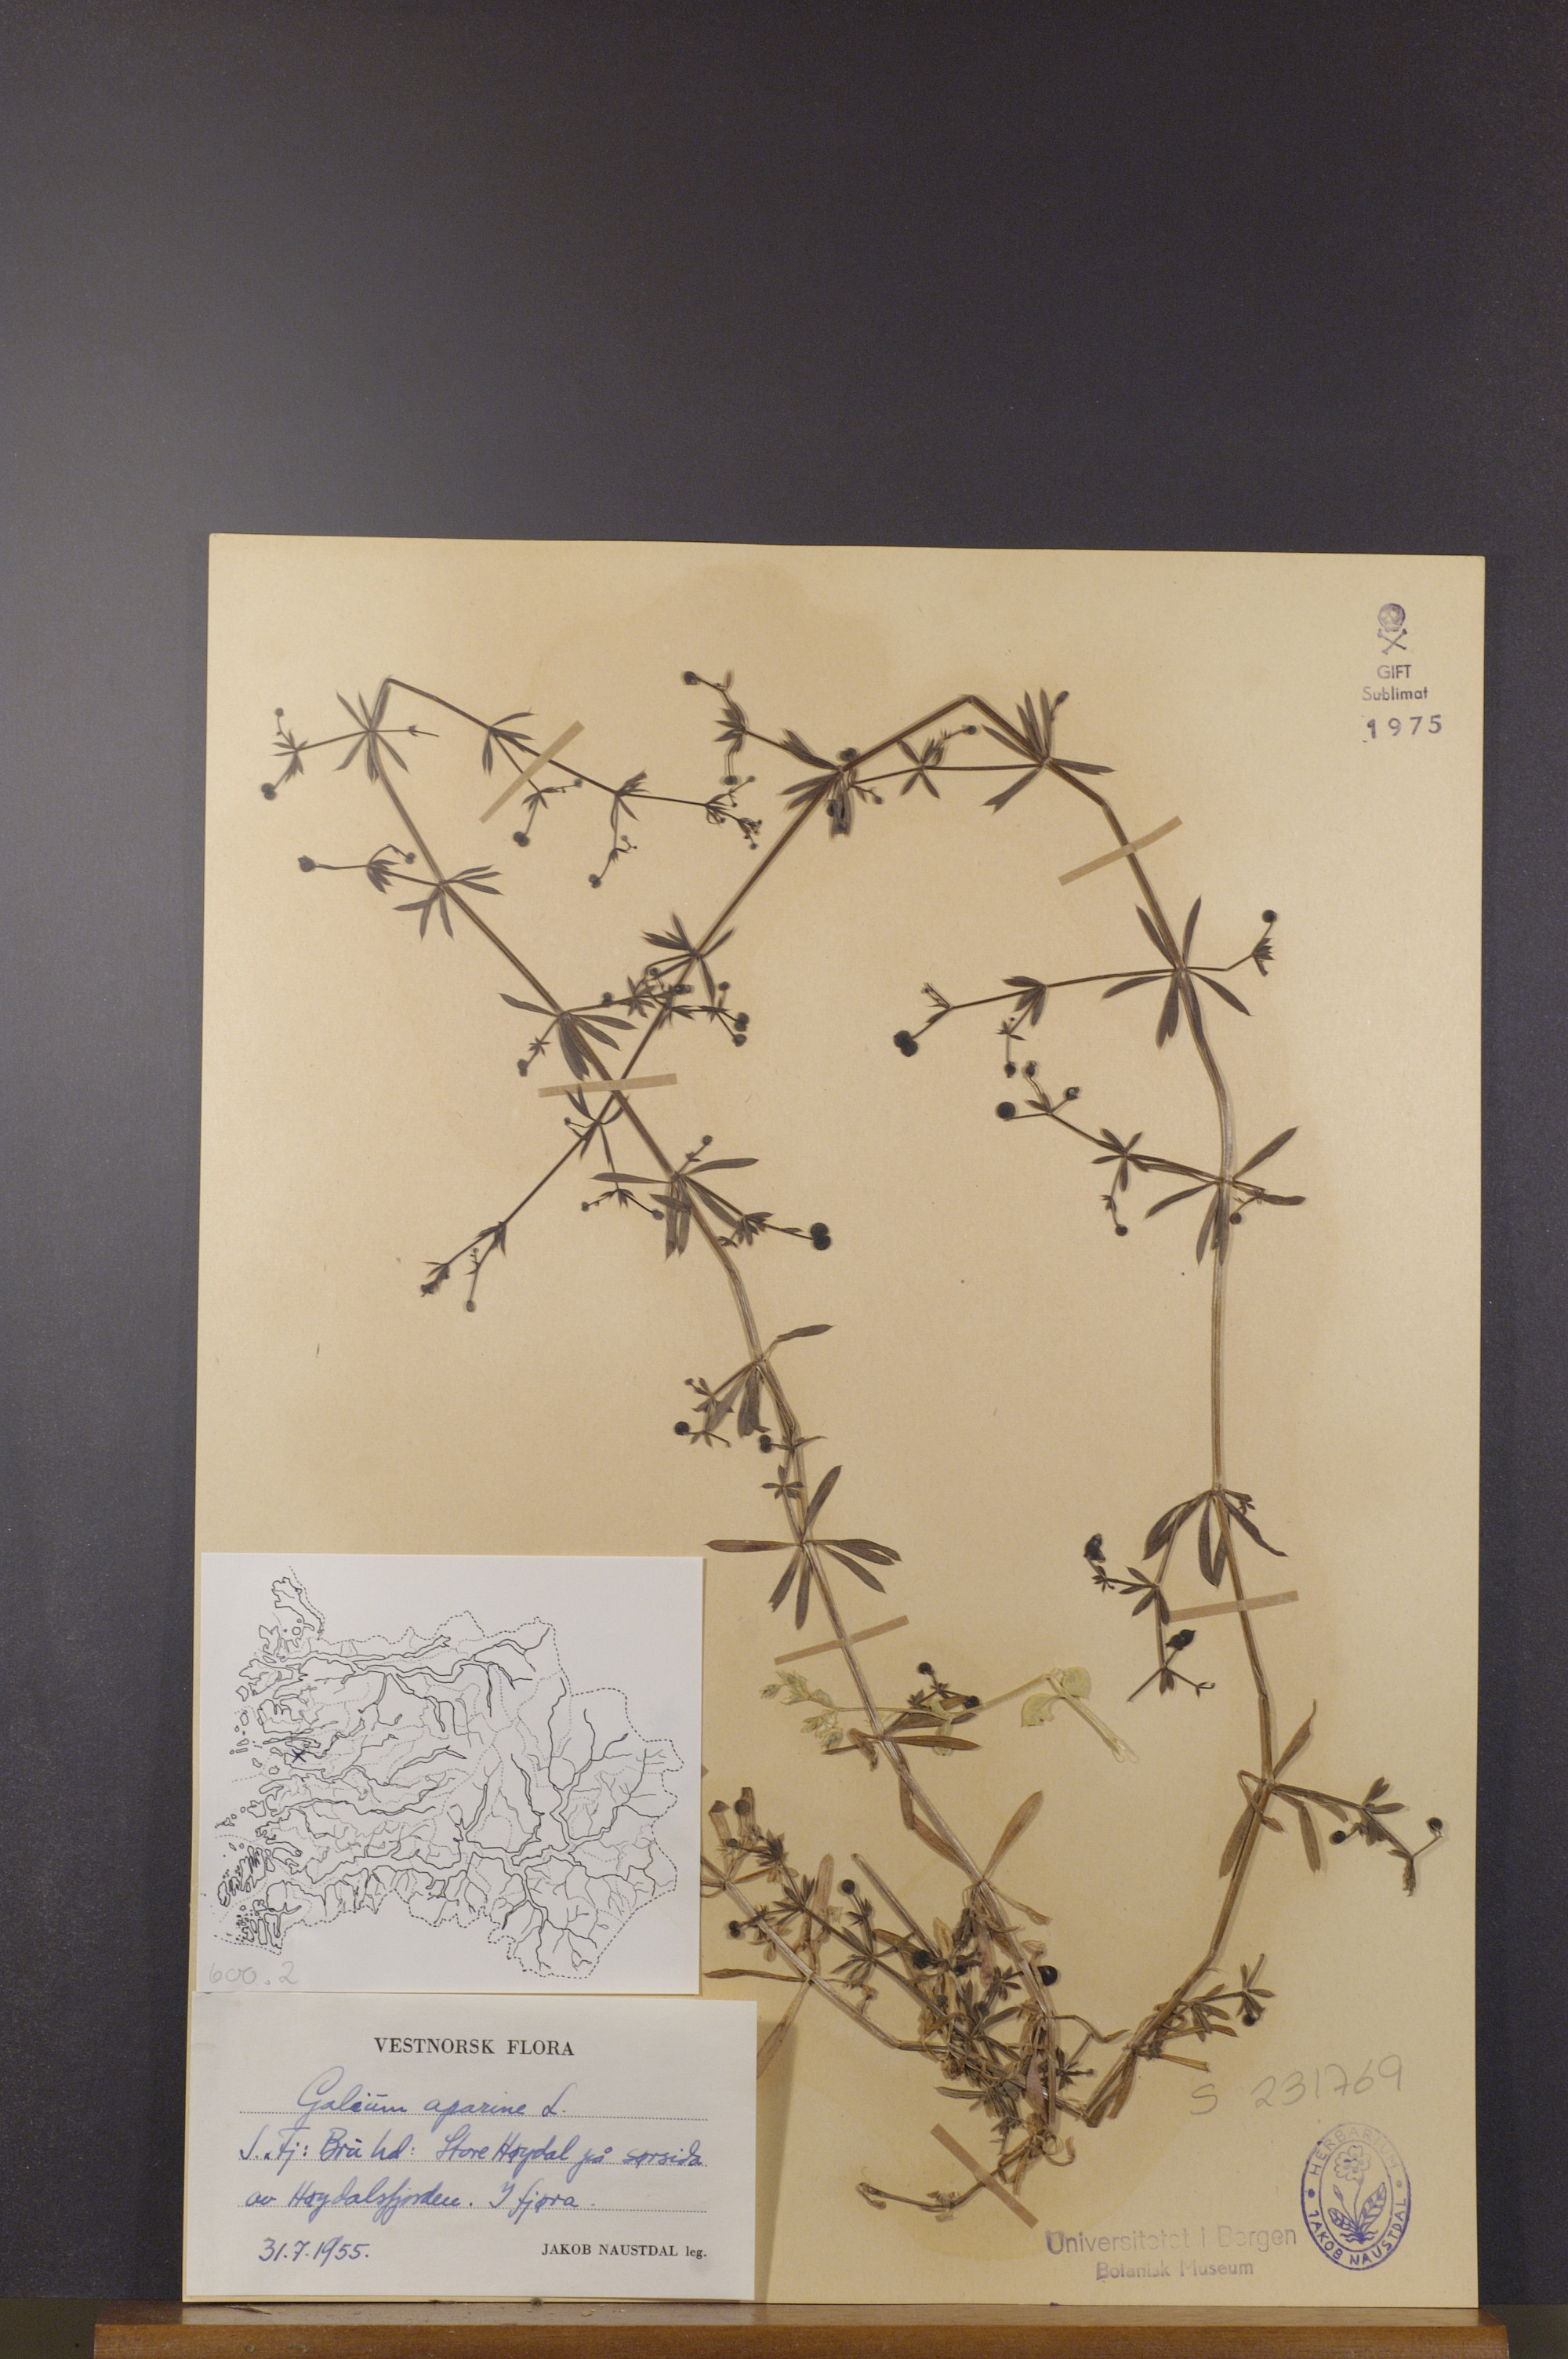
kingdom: Plantae
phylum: Tracheophyta
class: Magnoliopsida
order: Gentianales
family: Rubiaceae
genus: Galium
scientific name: Galium aparine
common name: Cleavers
